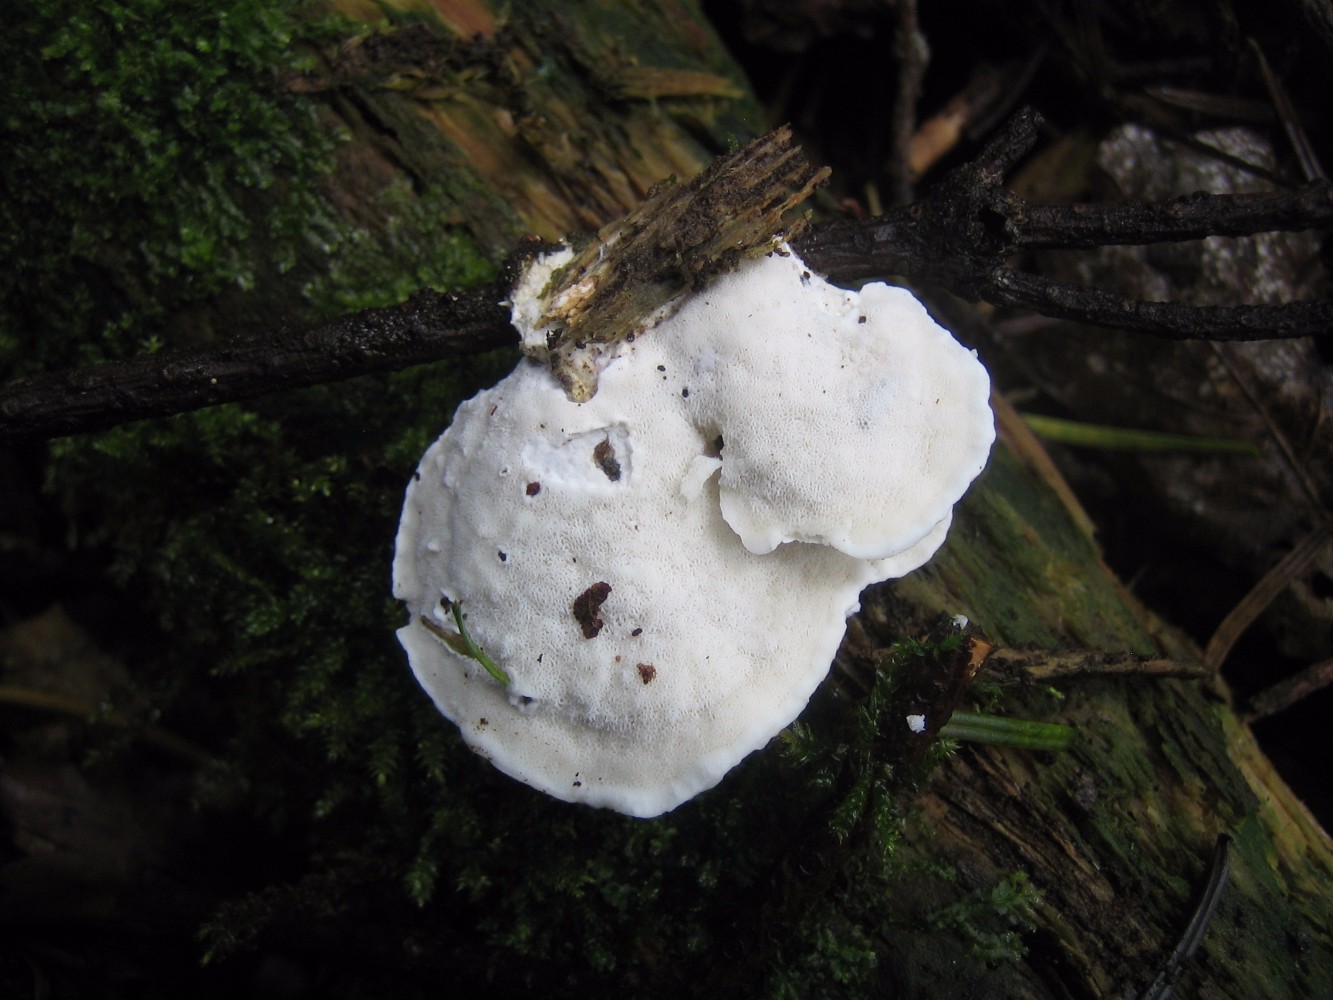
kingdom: Fungi
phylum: Basidiomycota
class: Agaricomycetes
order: Polyporales
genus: Amaropostia
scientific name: Amaropostia stiptica
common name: bitter kødporesvamp
